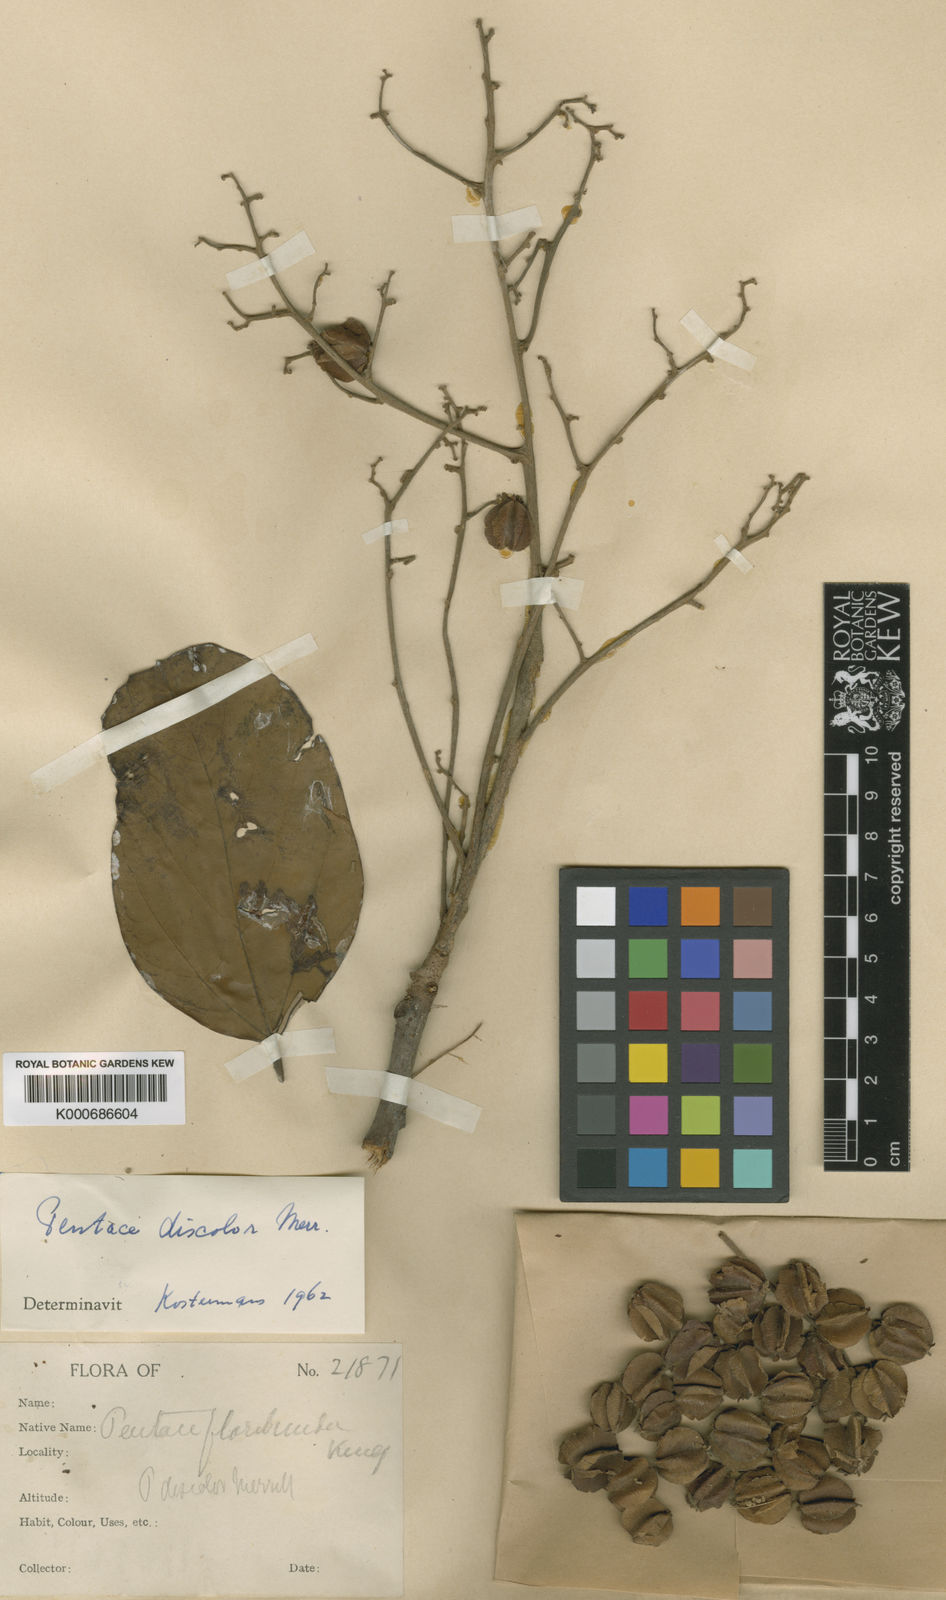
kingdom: Plantae
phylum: Tracheophyta
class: Magnoliopsida
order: Malvales
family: Malvaceae
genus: Pentace
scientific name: Pentace discolor
